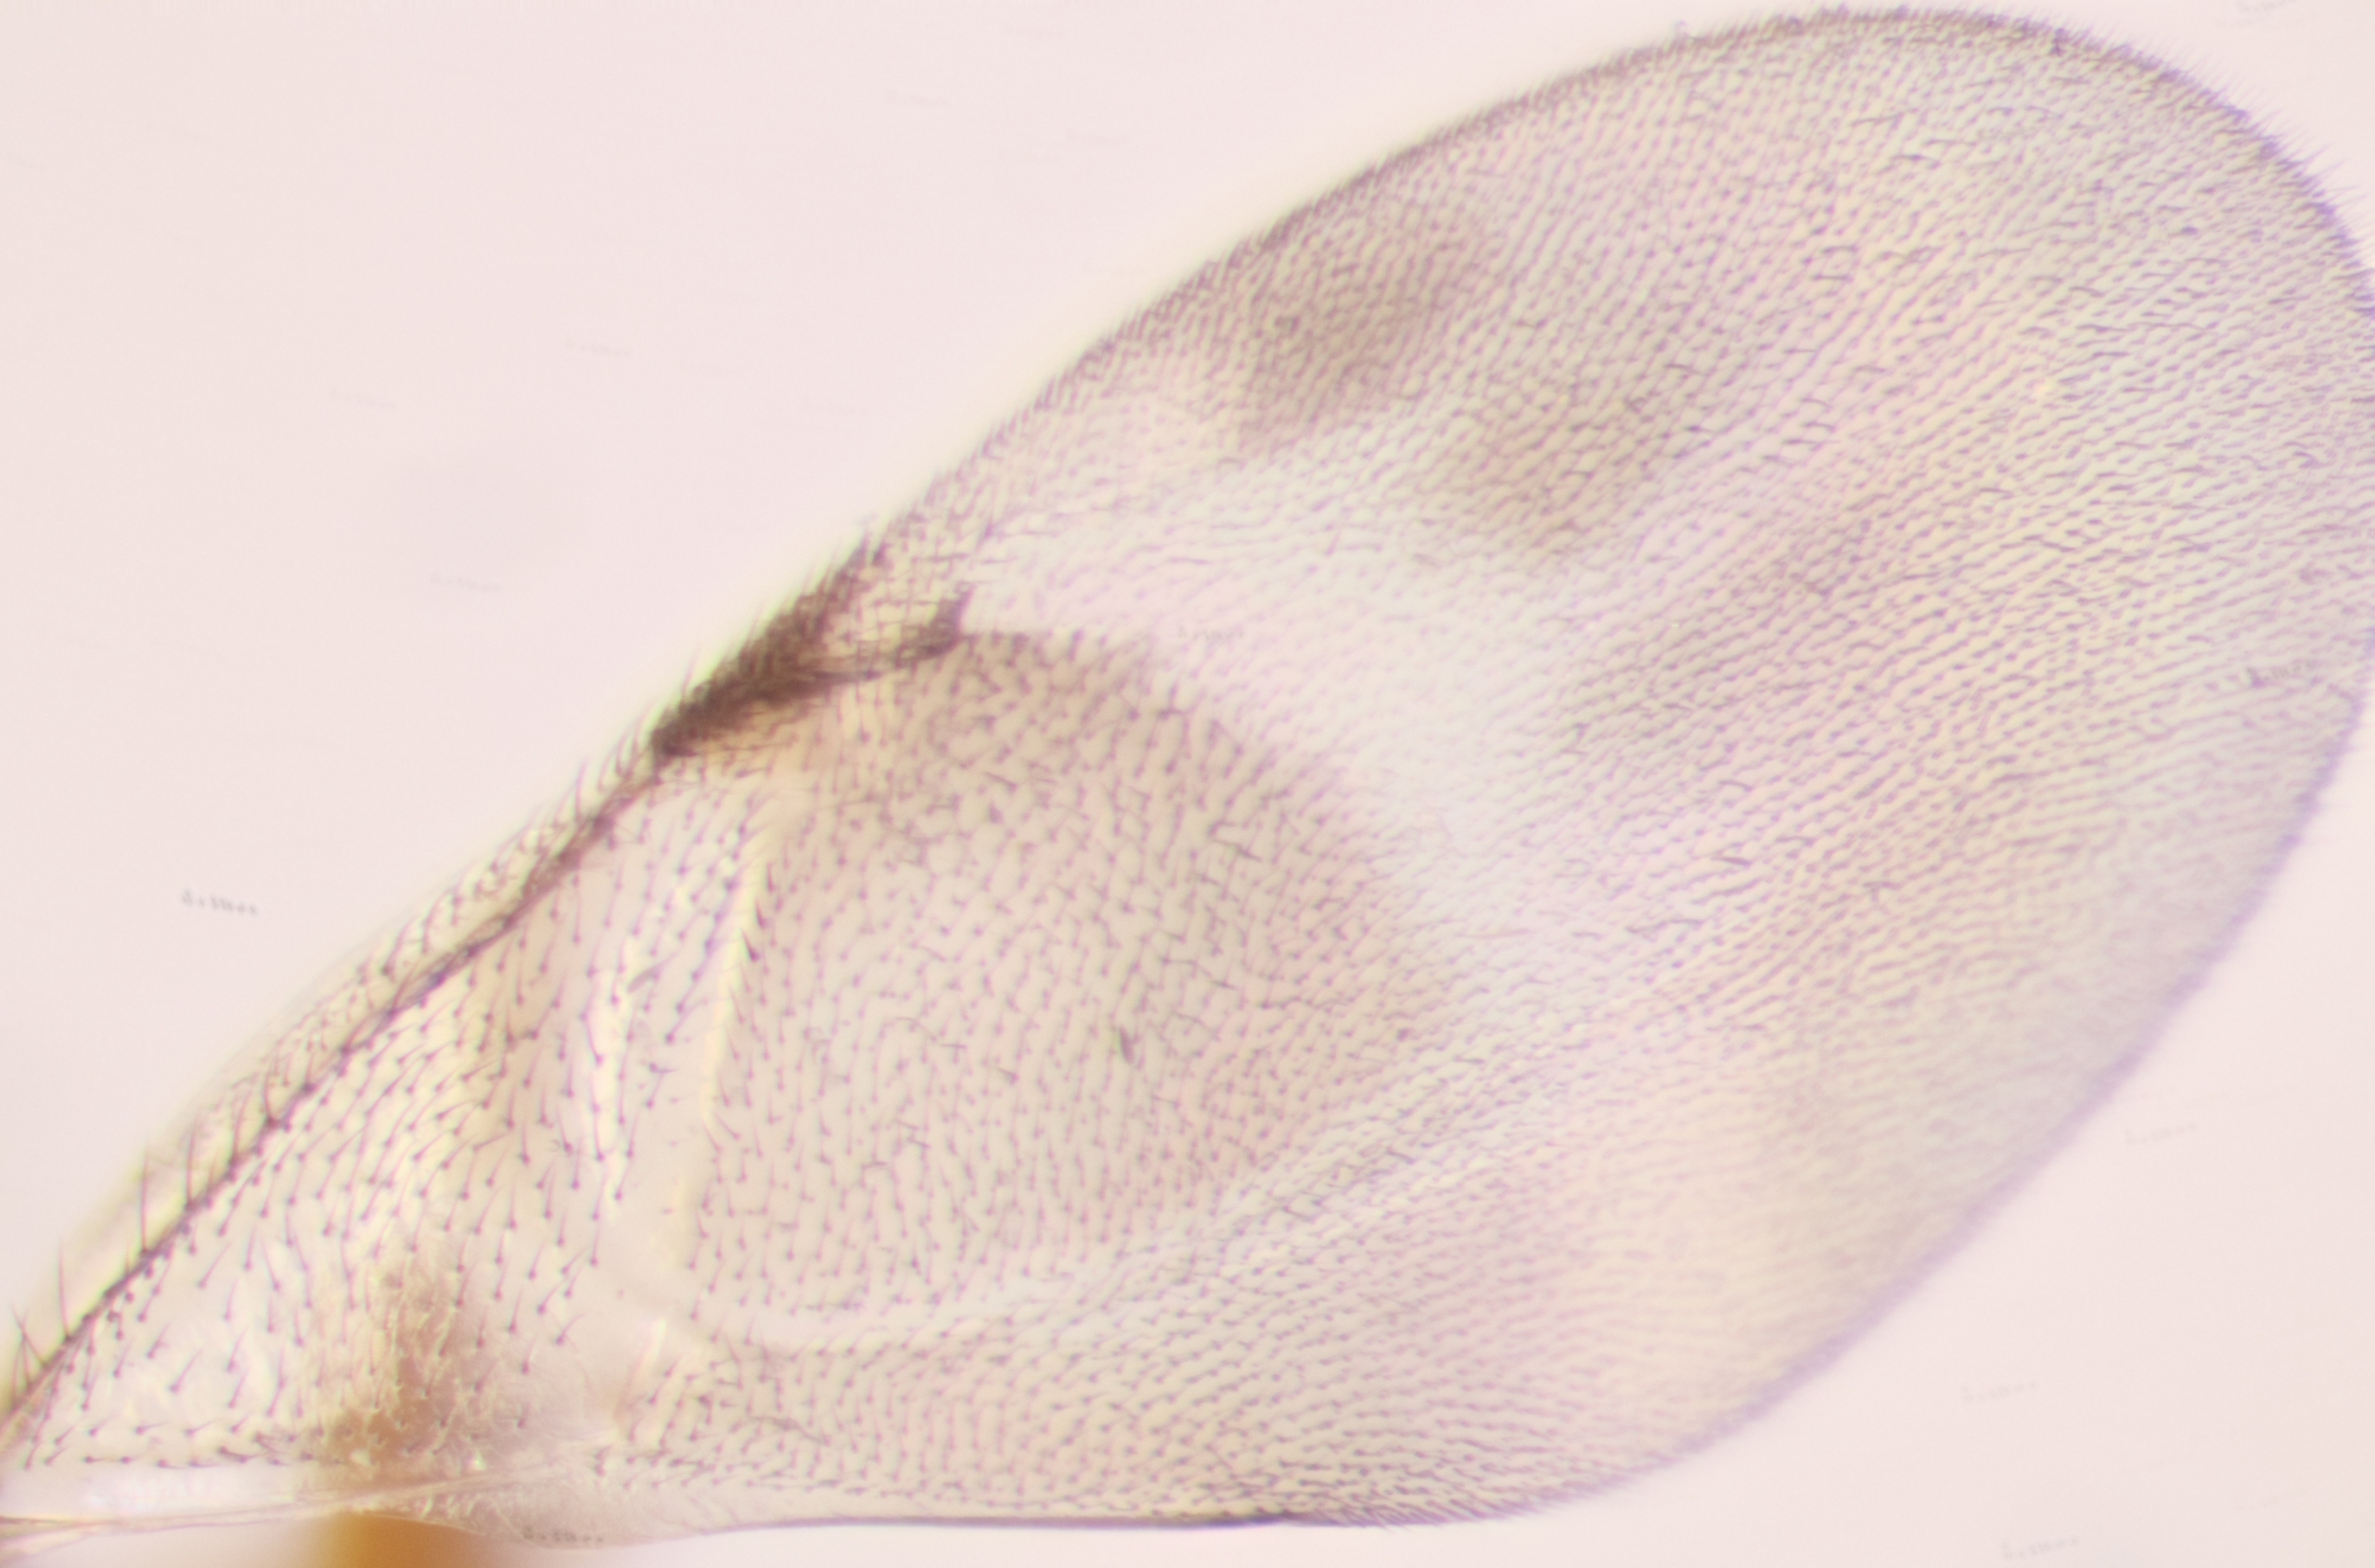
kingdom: Animalia
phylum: Arthropoda
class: Insecta
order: Hymenoptera
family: Encyrtidae
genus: Microterys
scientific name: Microterys lunatus
